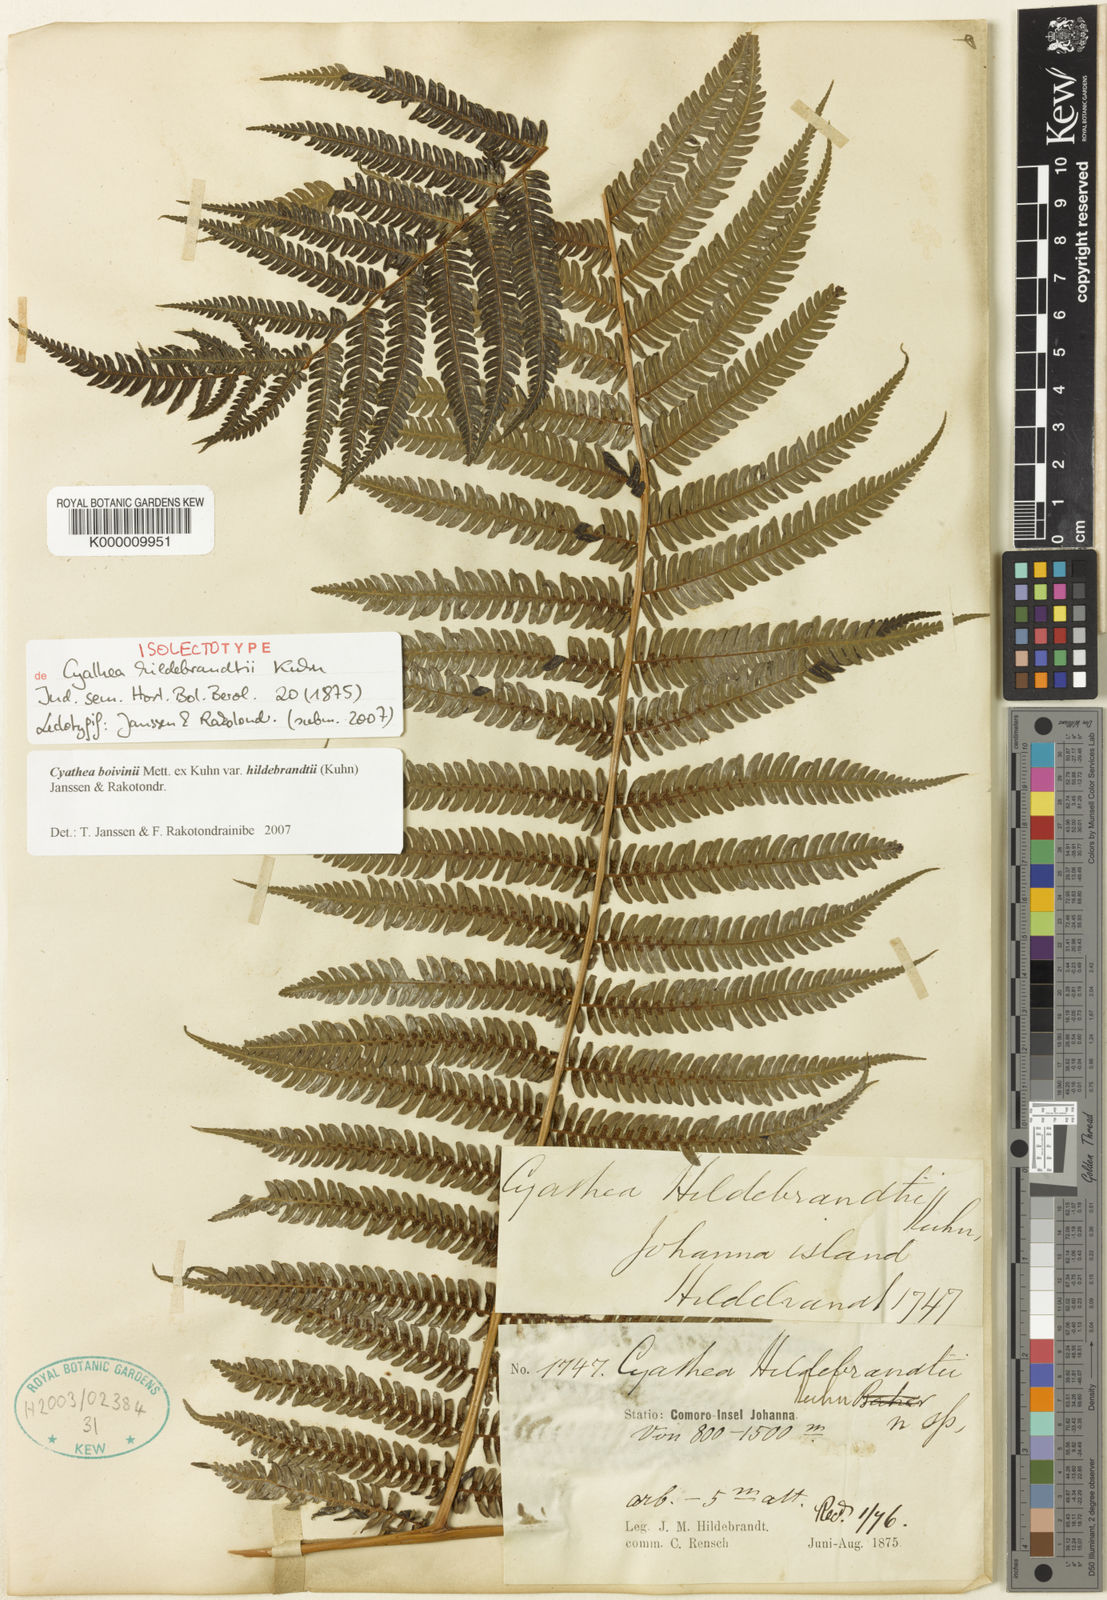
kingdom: Plantae
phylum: Tracheophyta
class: Polypodiopsida
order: Cyatheales
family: Cyatheaceae
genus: Gymnosphaera
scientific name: Gymnosphaera boivinii
